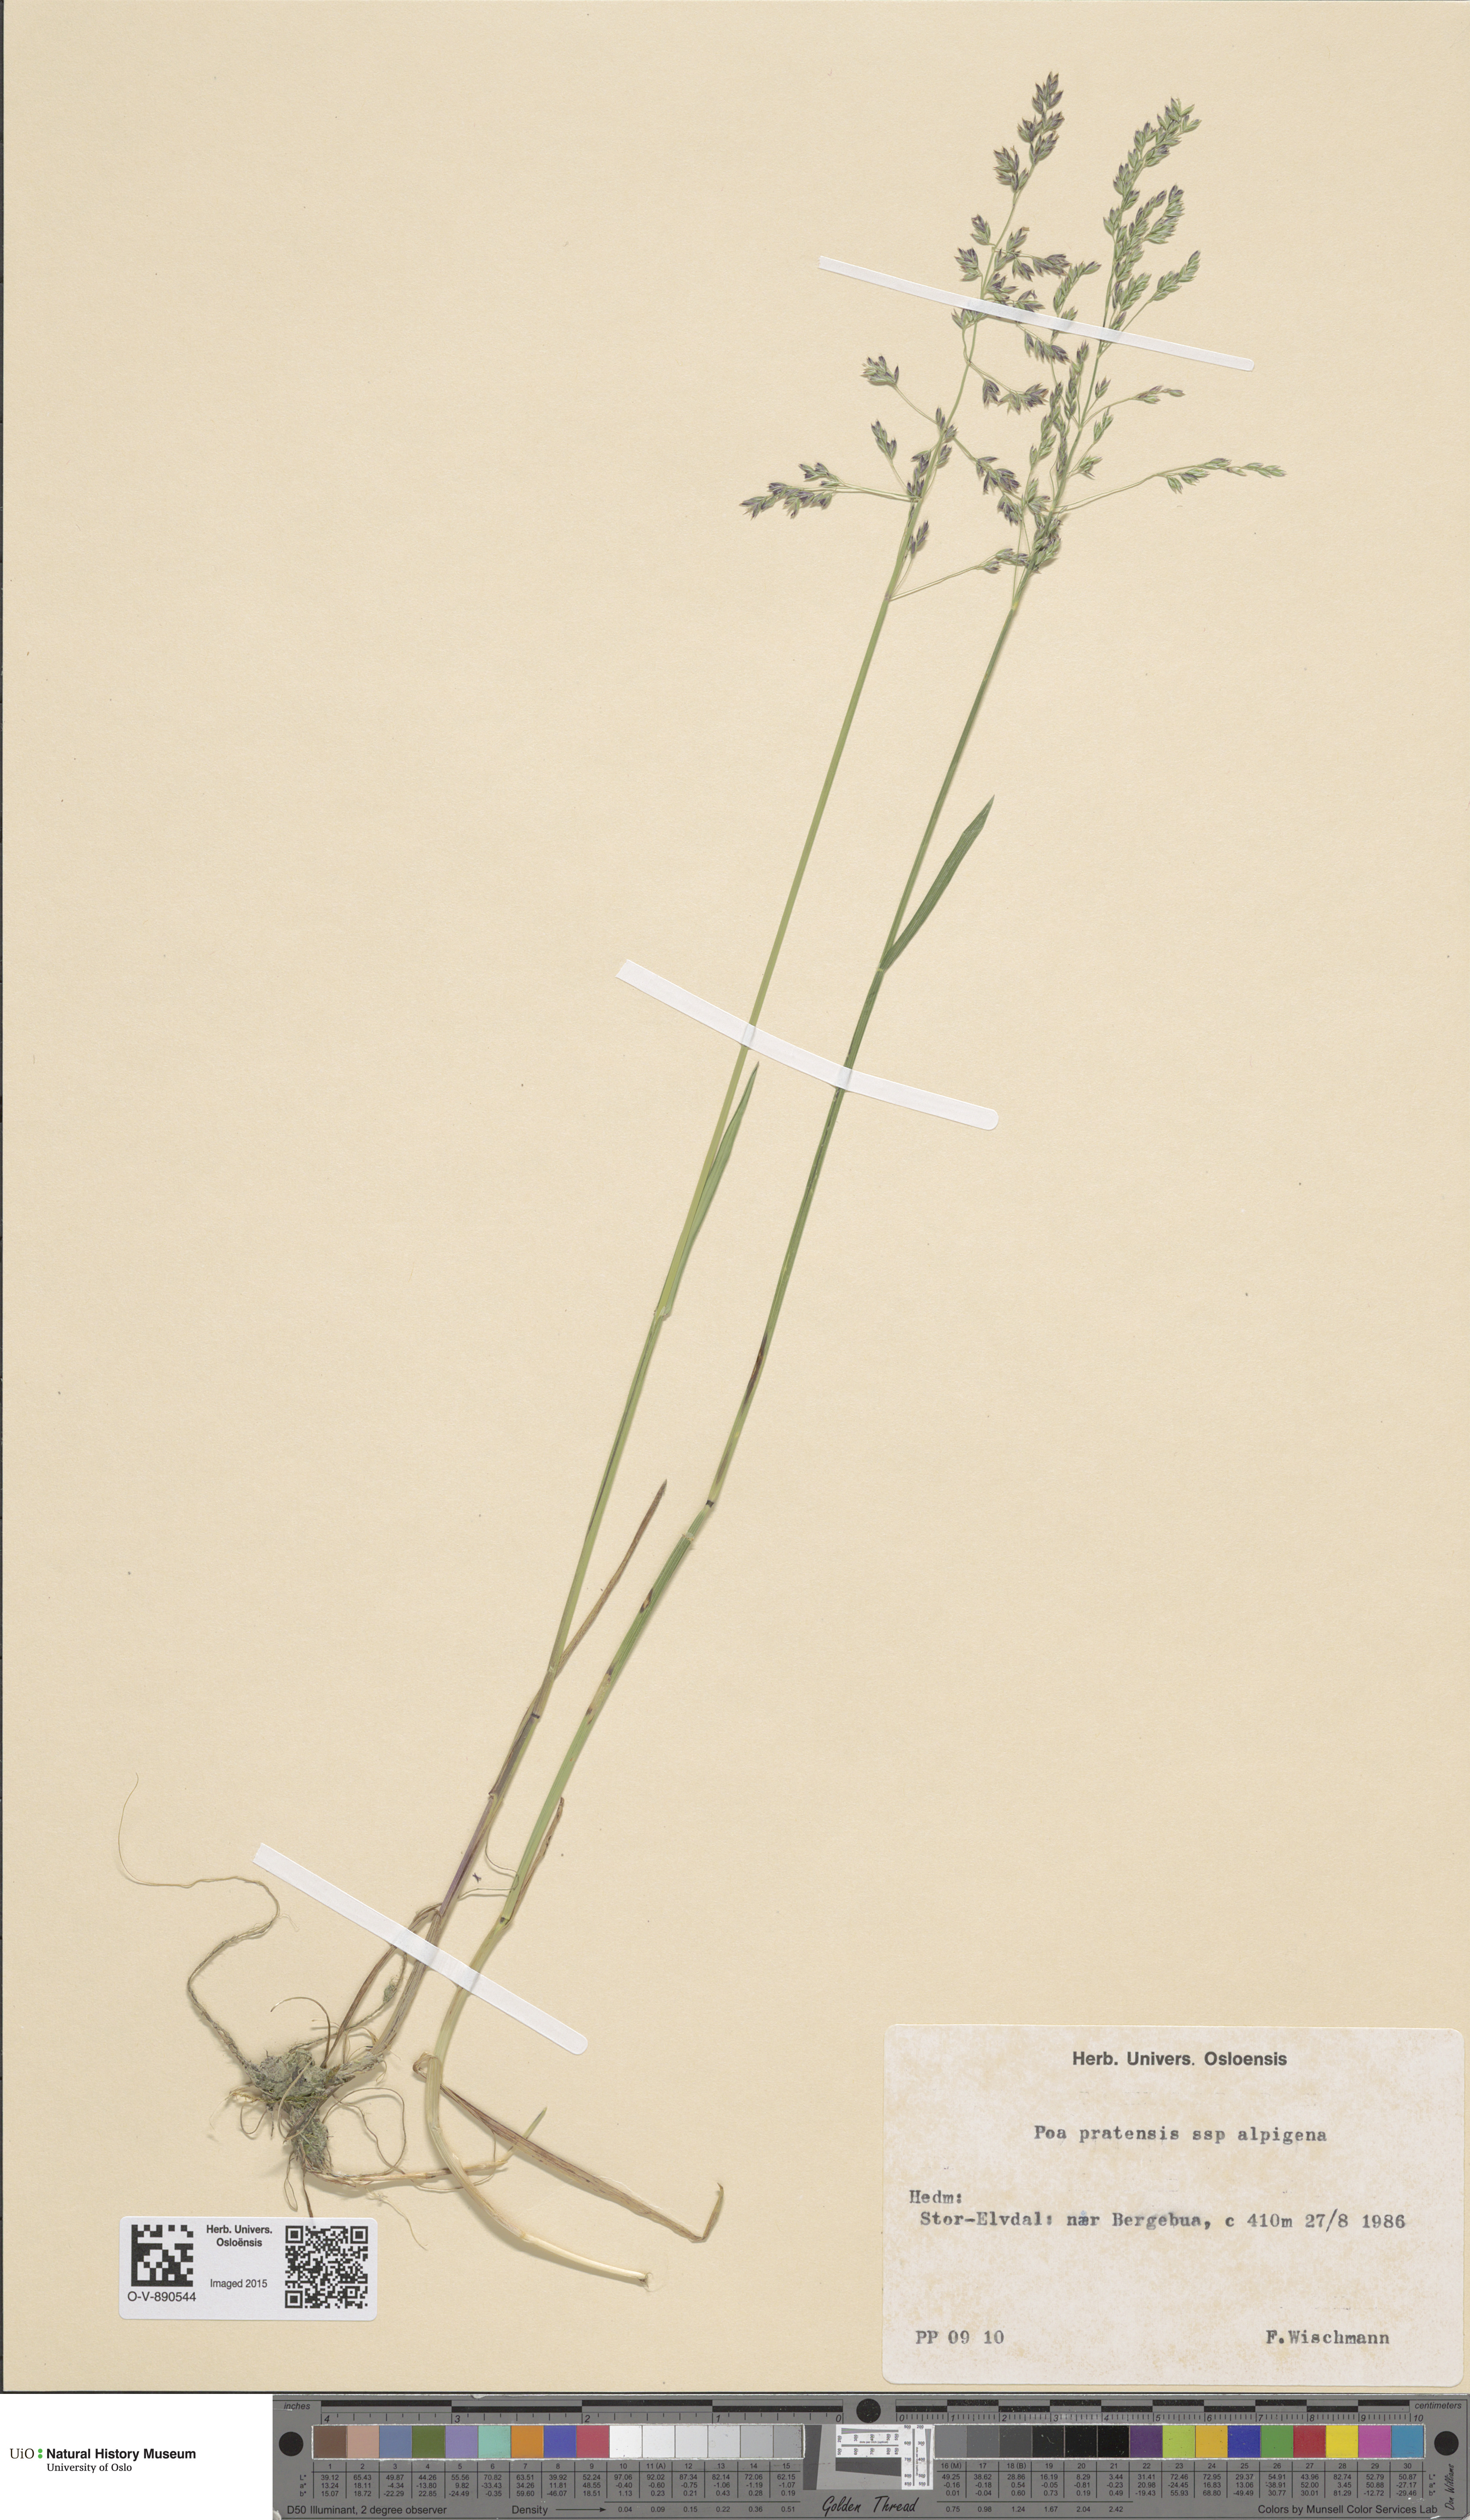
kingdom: Plantae
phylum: Tracheophyta
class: Liliopsida
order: Poales
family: Poaceae
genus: Poa
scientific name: Poa alpigena
